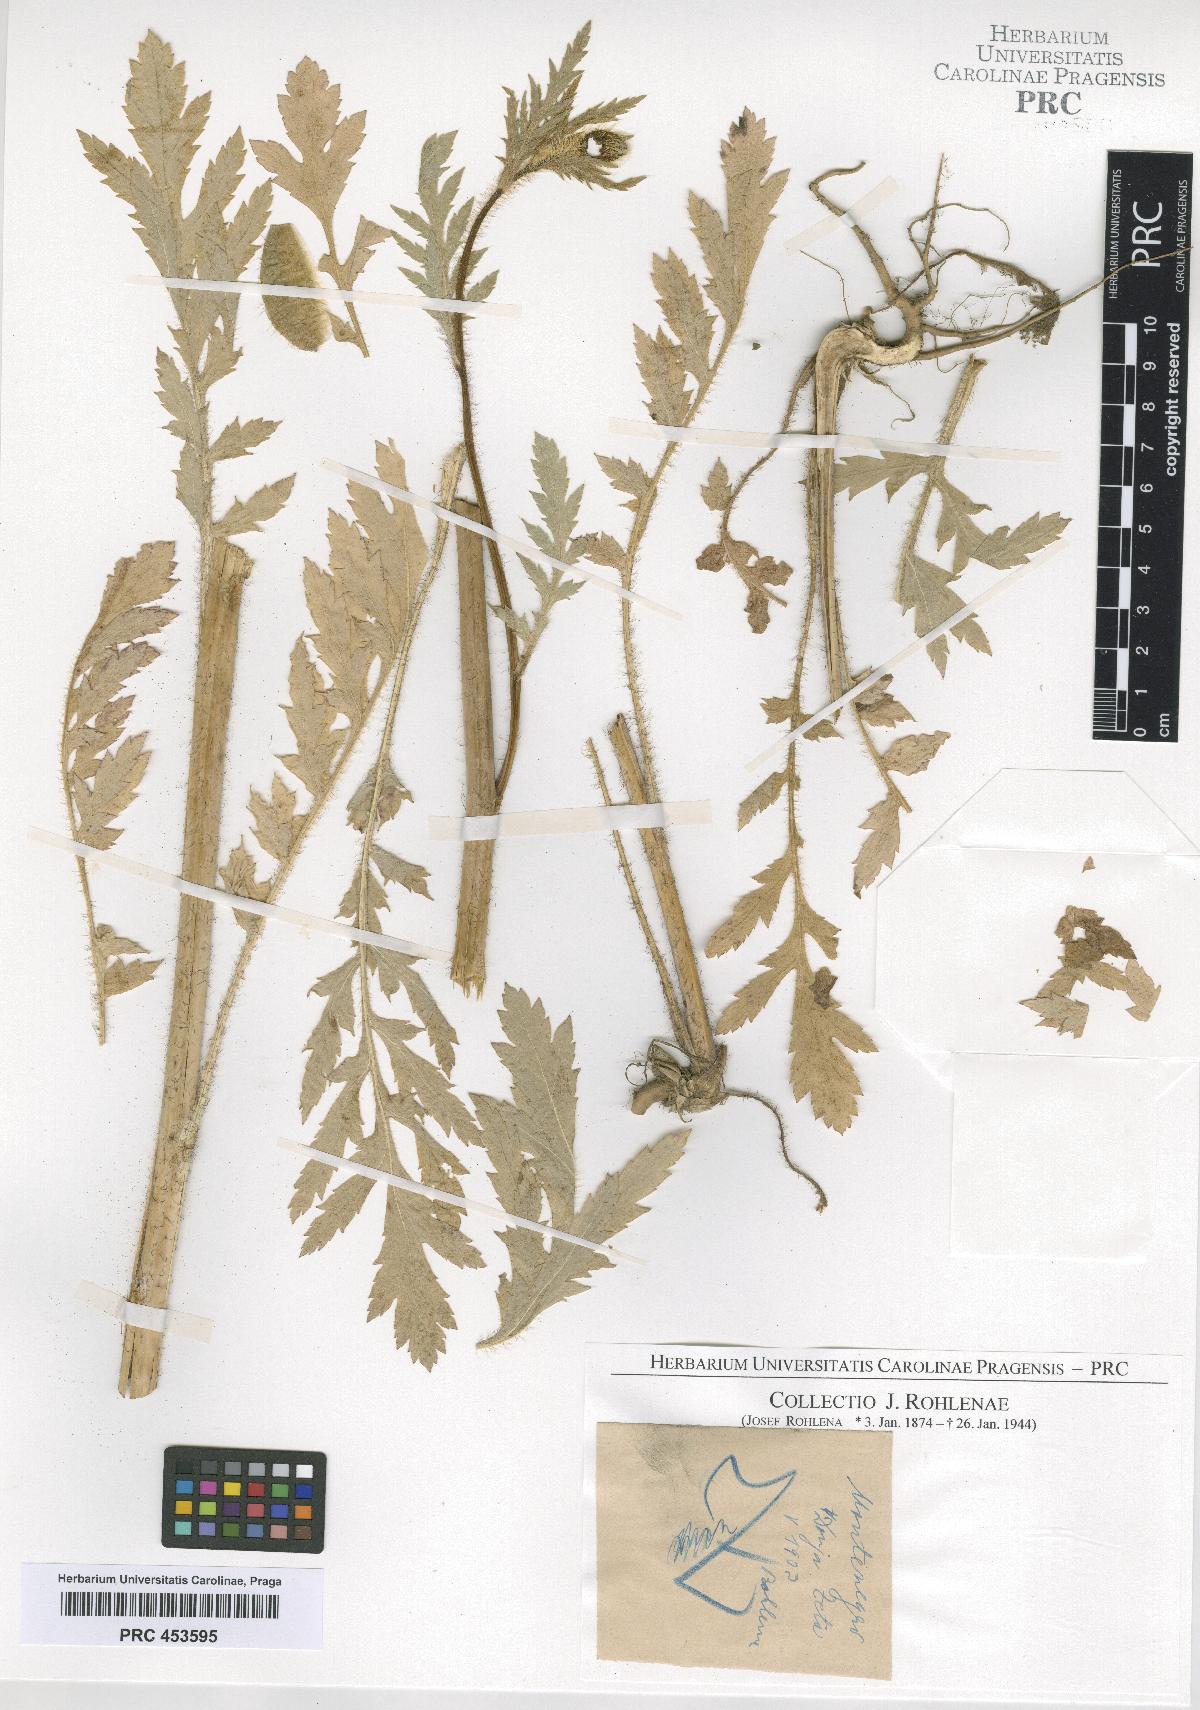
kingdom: Plantae
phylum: Tracheophyta
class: Magnoliopsida
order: Ranunculales
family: Papaveraceae
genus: Papaver
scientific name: Papaver rhoeas
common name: Corn poppy
